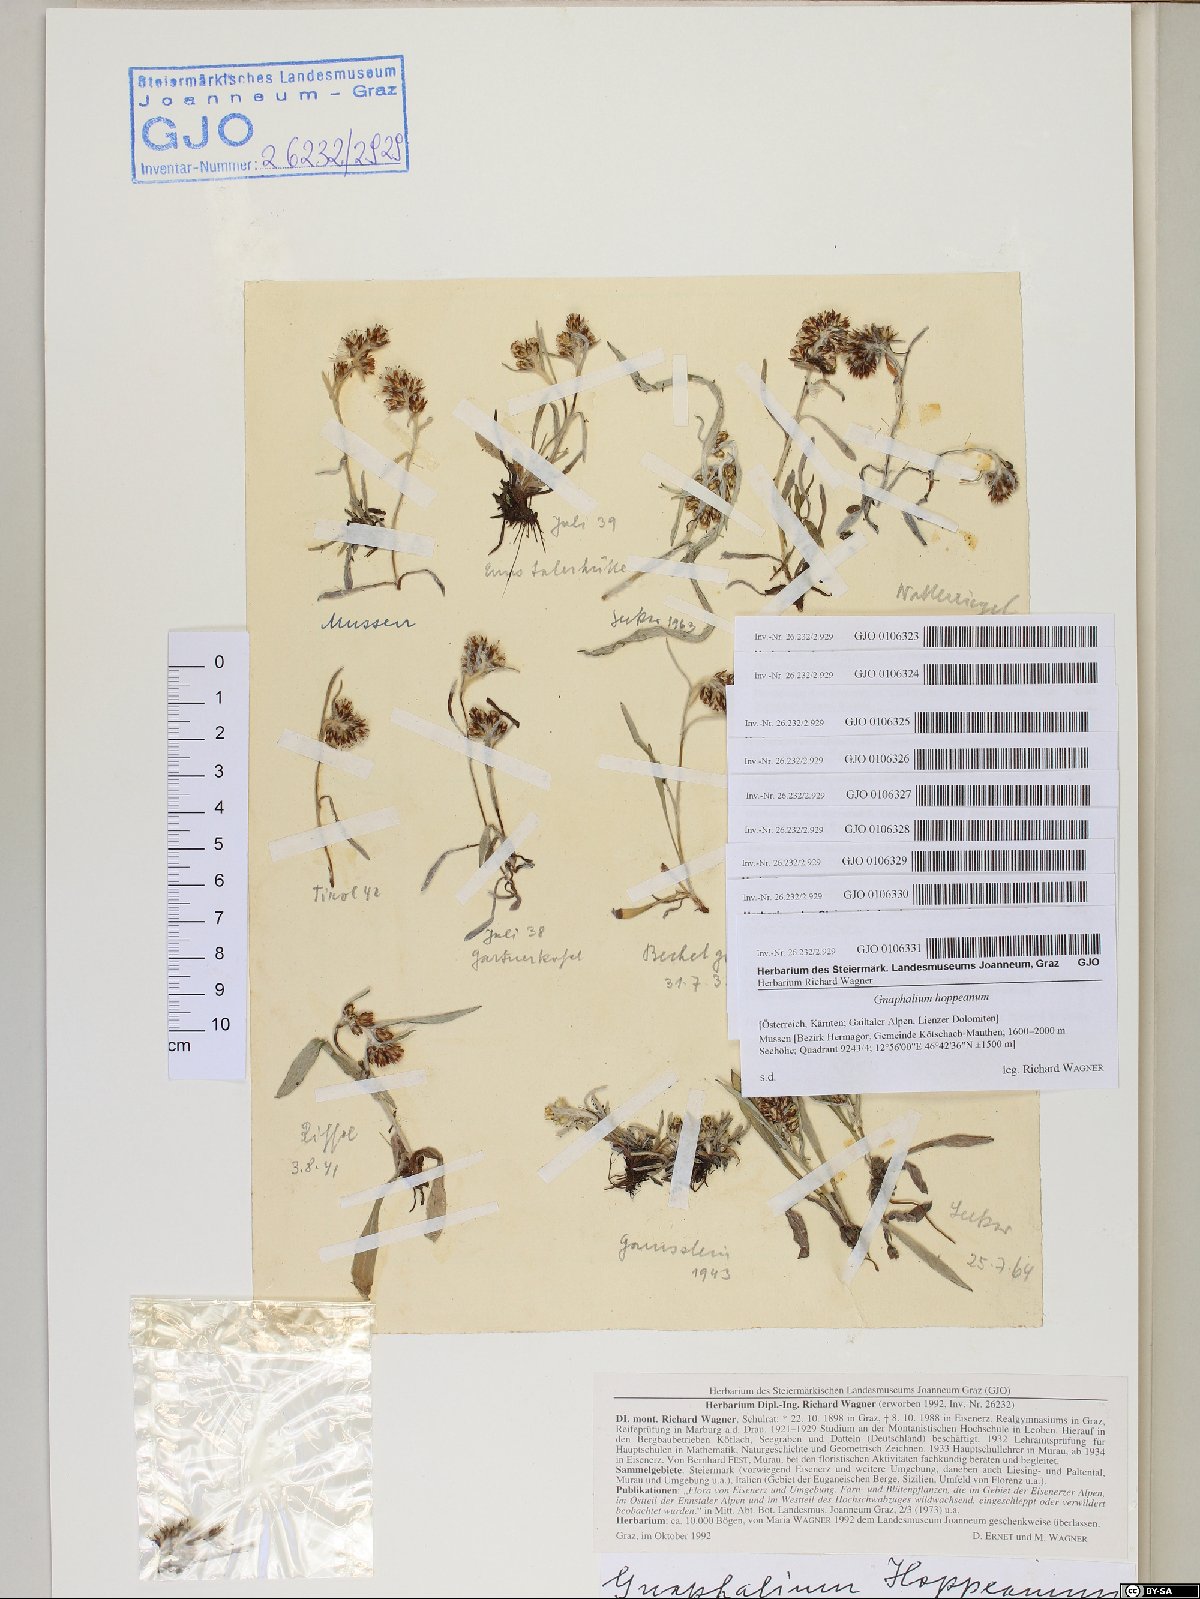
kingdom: Plantae
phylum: Tracheophyta
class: Magnoliopsida
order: Asterales
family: Asteraceae
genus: Omalotheca
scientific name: Omalotheca hoppeana
